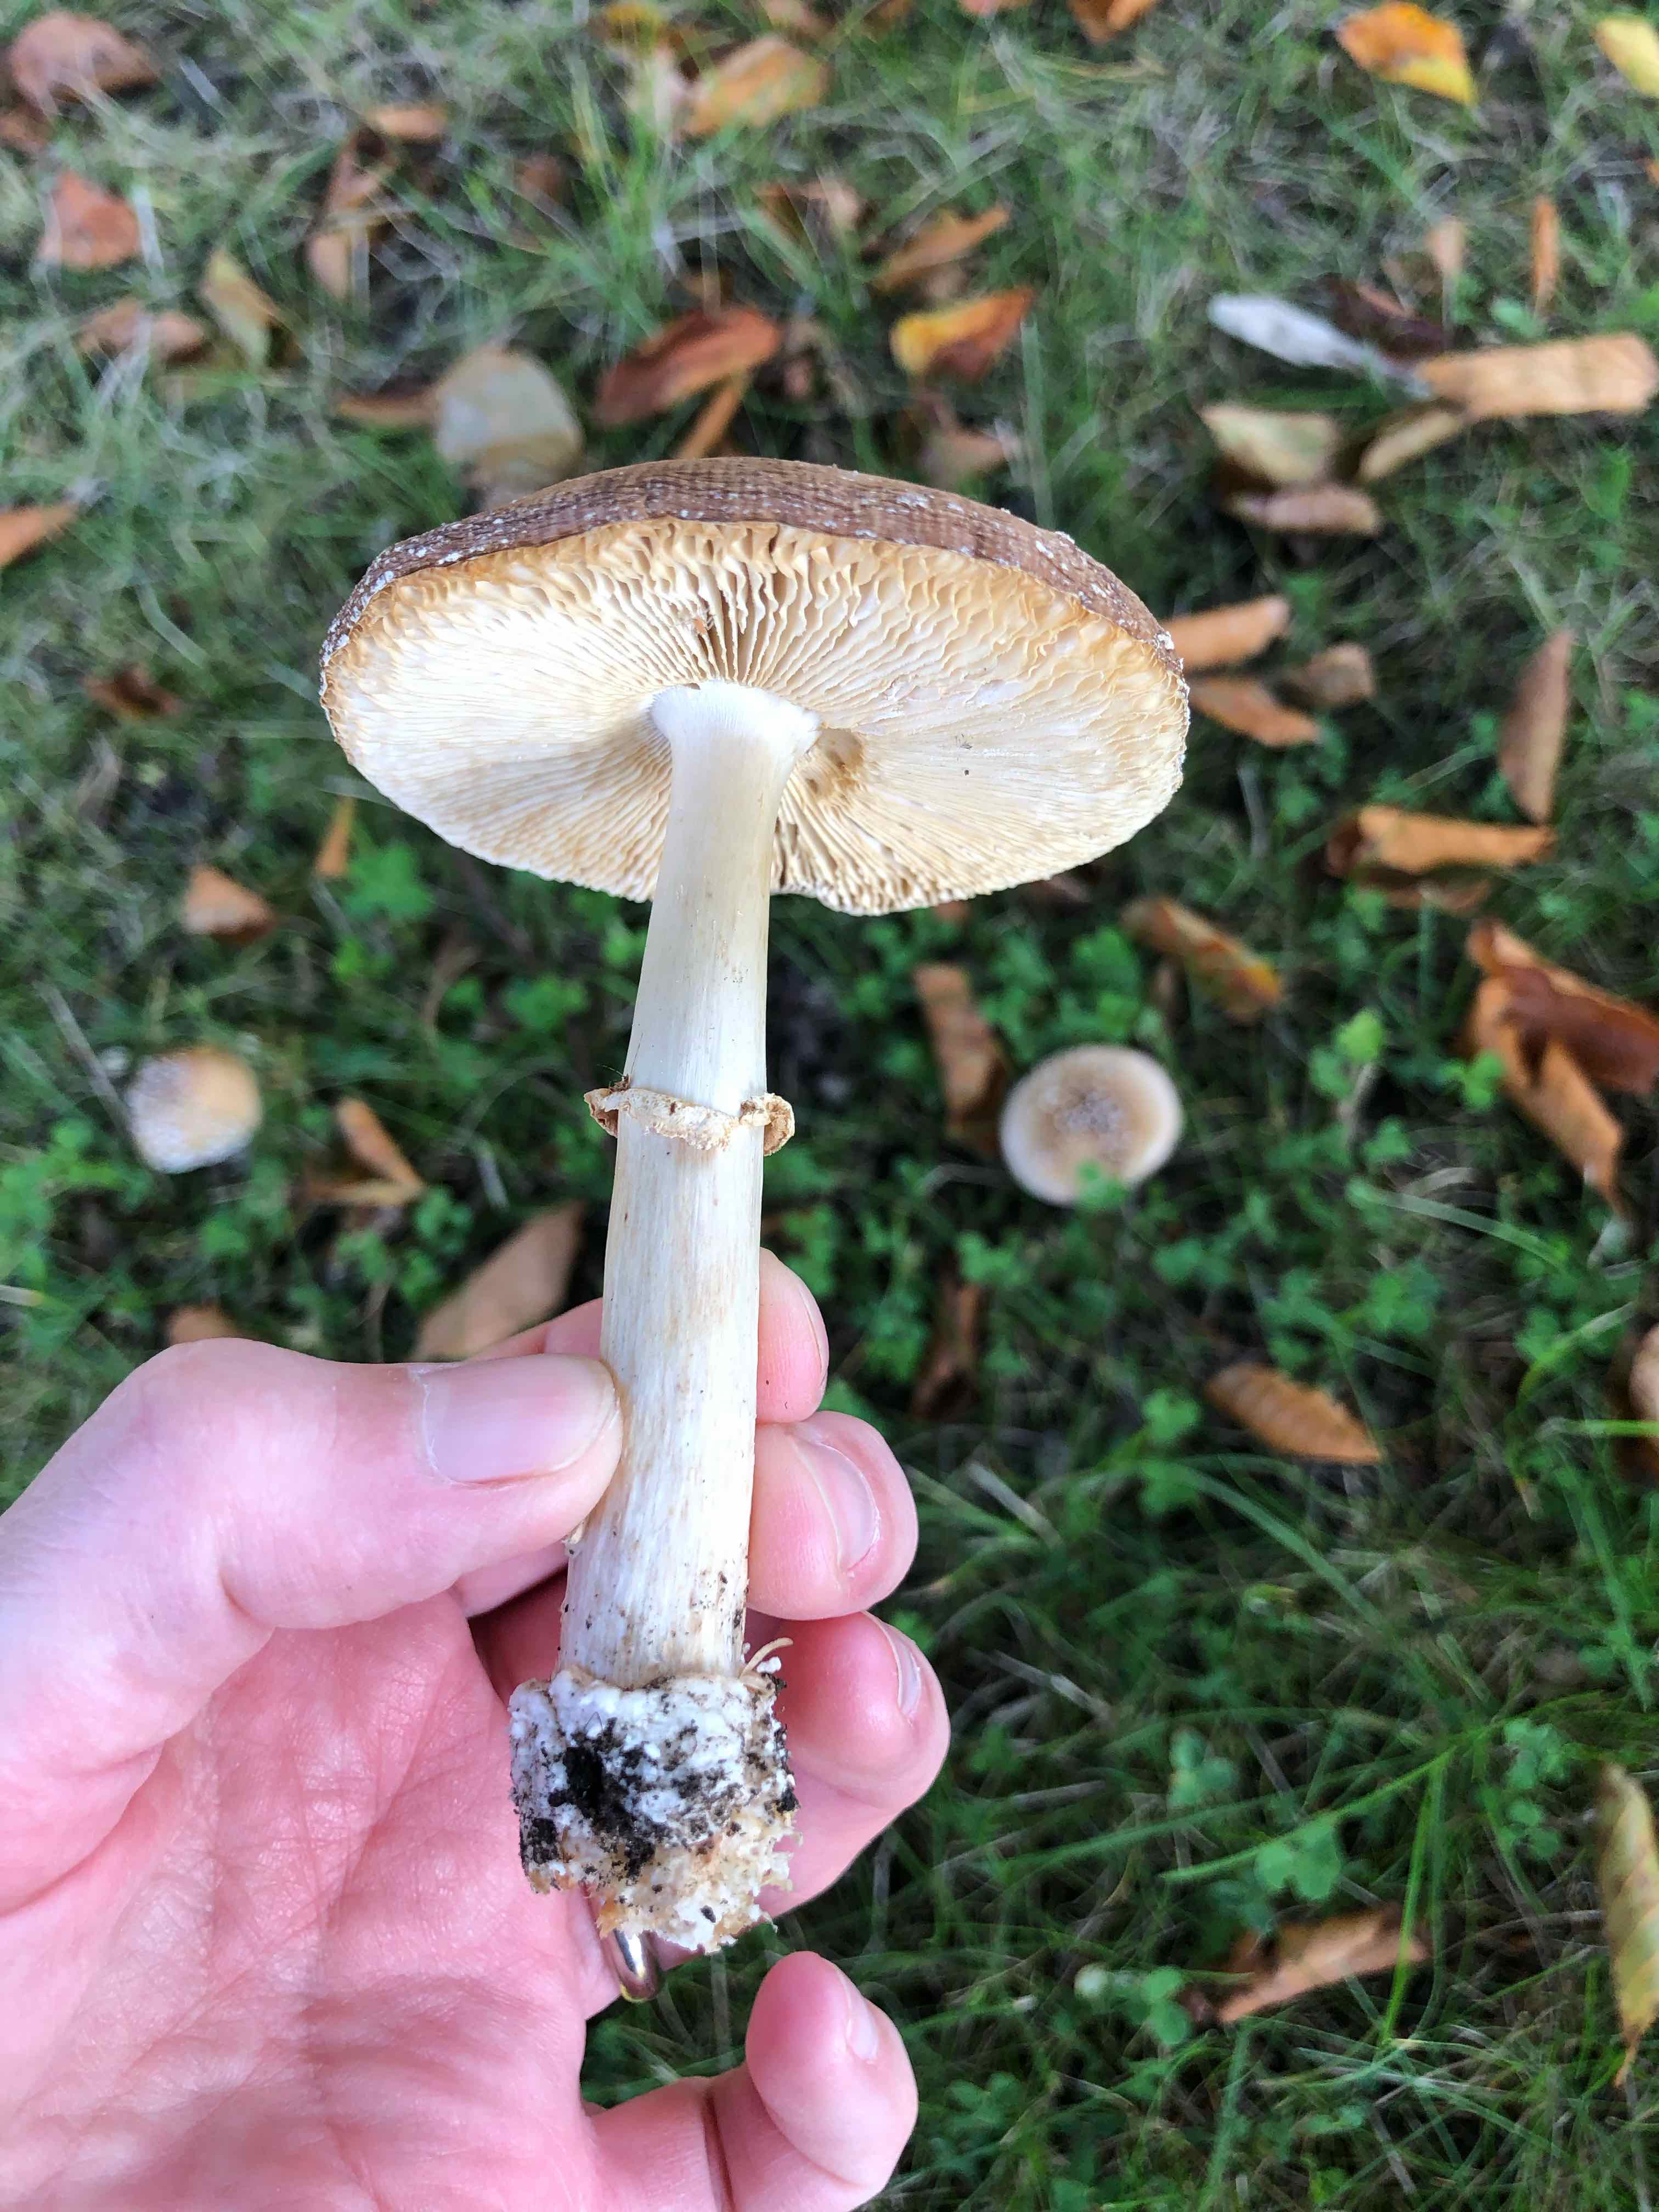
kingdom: Fungi
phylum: Basidiomycota
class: Agaricomycetes
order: Agaricales
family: Amanitaceae
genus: Amanita
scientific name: Amanita pantherina
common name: panter-fluesvamp
